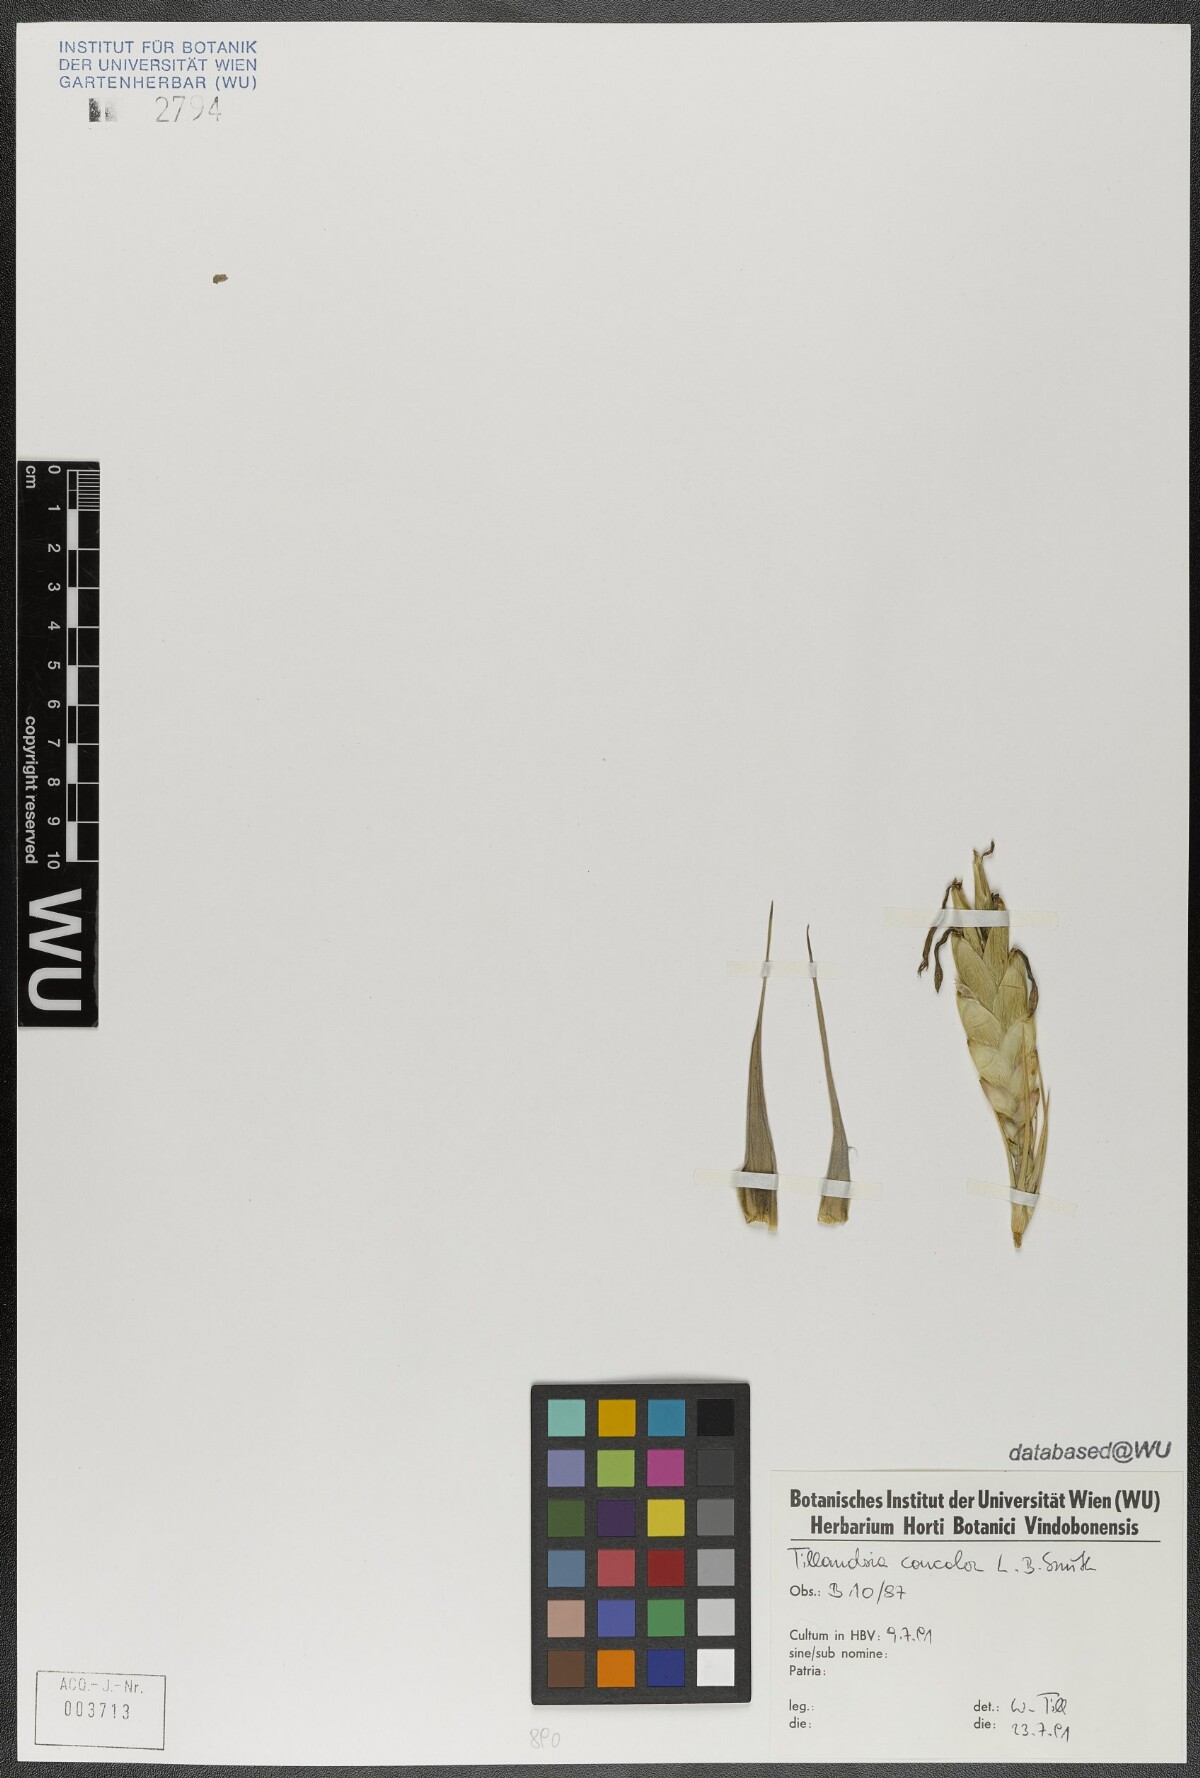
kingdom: Plantae
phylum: Tracheophyta
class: Liliopsida
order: Poales
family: Bromeliaceae
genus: Tillandsia
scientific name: Tillandsia concolor
